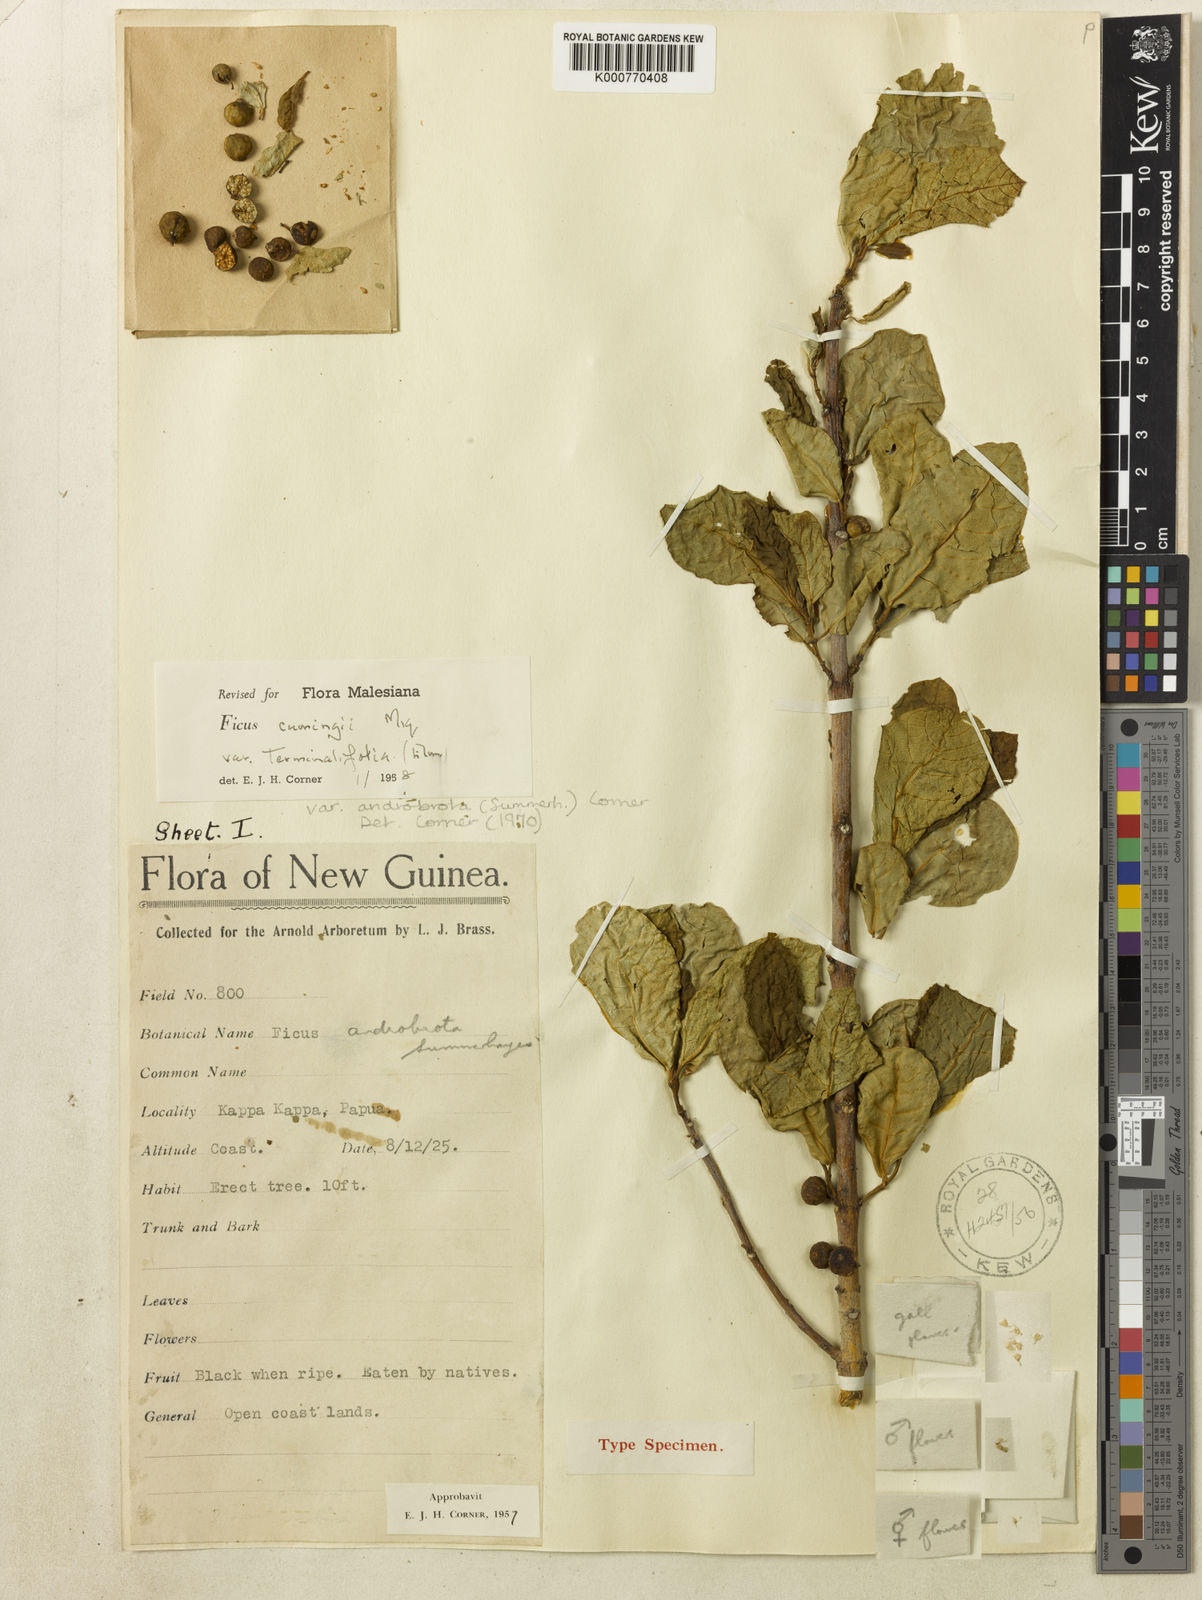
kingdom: Plantae
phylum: Tracheophyta
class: Magnoliopsida
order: Rosales
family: Moraceae
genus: Ficus
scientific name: Ficus cumingii
